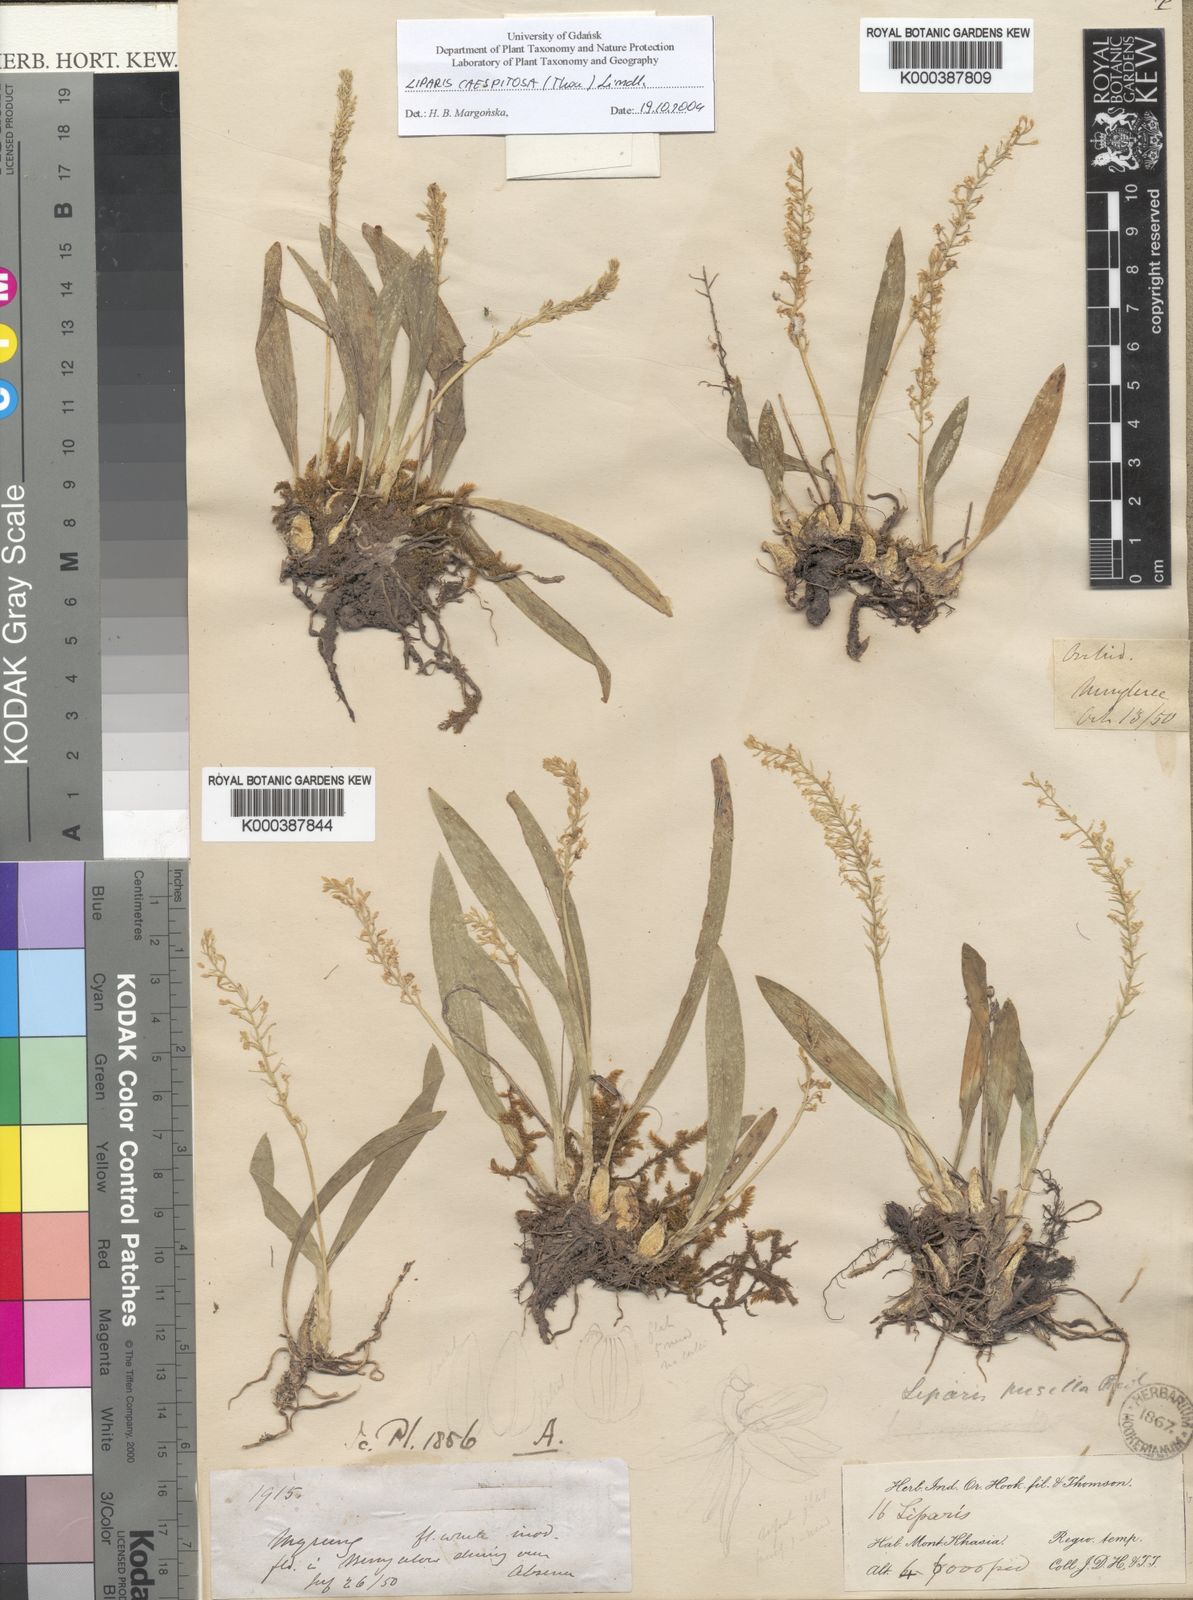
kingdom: Plantae
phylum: Tracheophyta
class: Liliopsida
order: Asparagales
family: Orchidaceae
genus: Liparis
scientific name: Liparis
